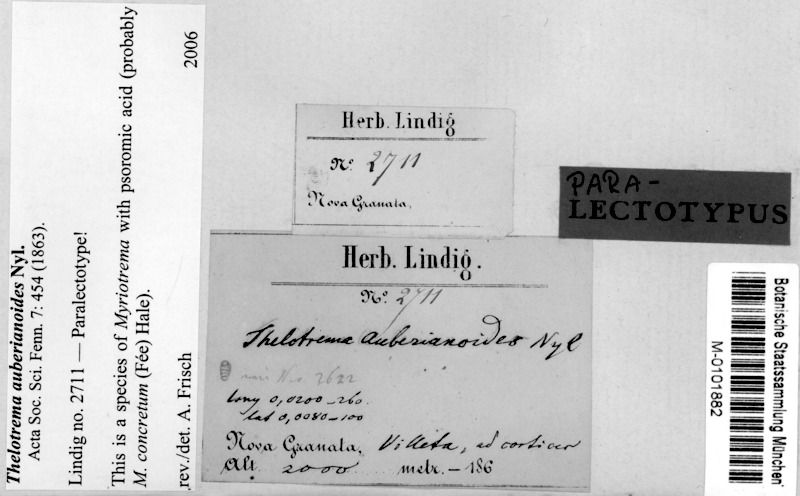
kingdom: Fungi
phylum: Ascomycota
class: Lecanoromycetes
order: Ostropales
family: Graphidaceae
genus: Myriotrema
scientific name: Myriotrema concretum
